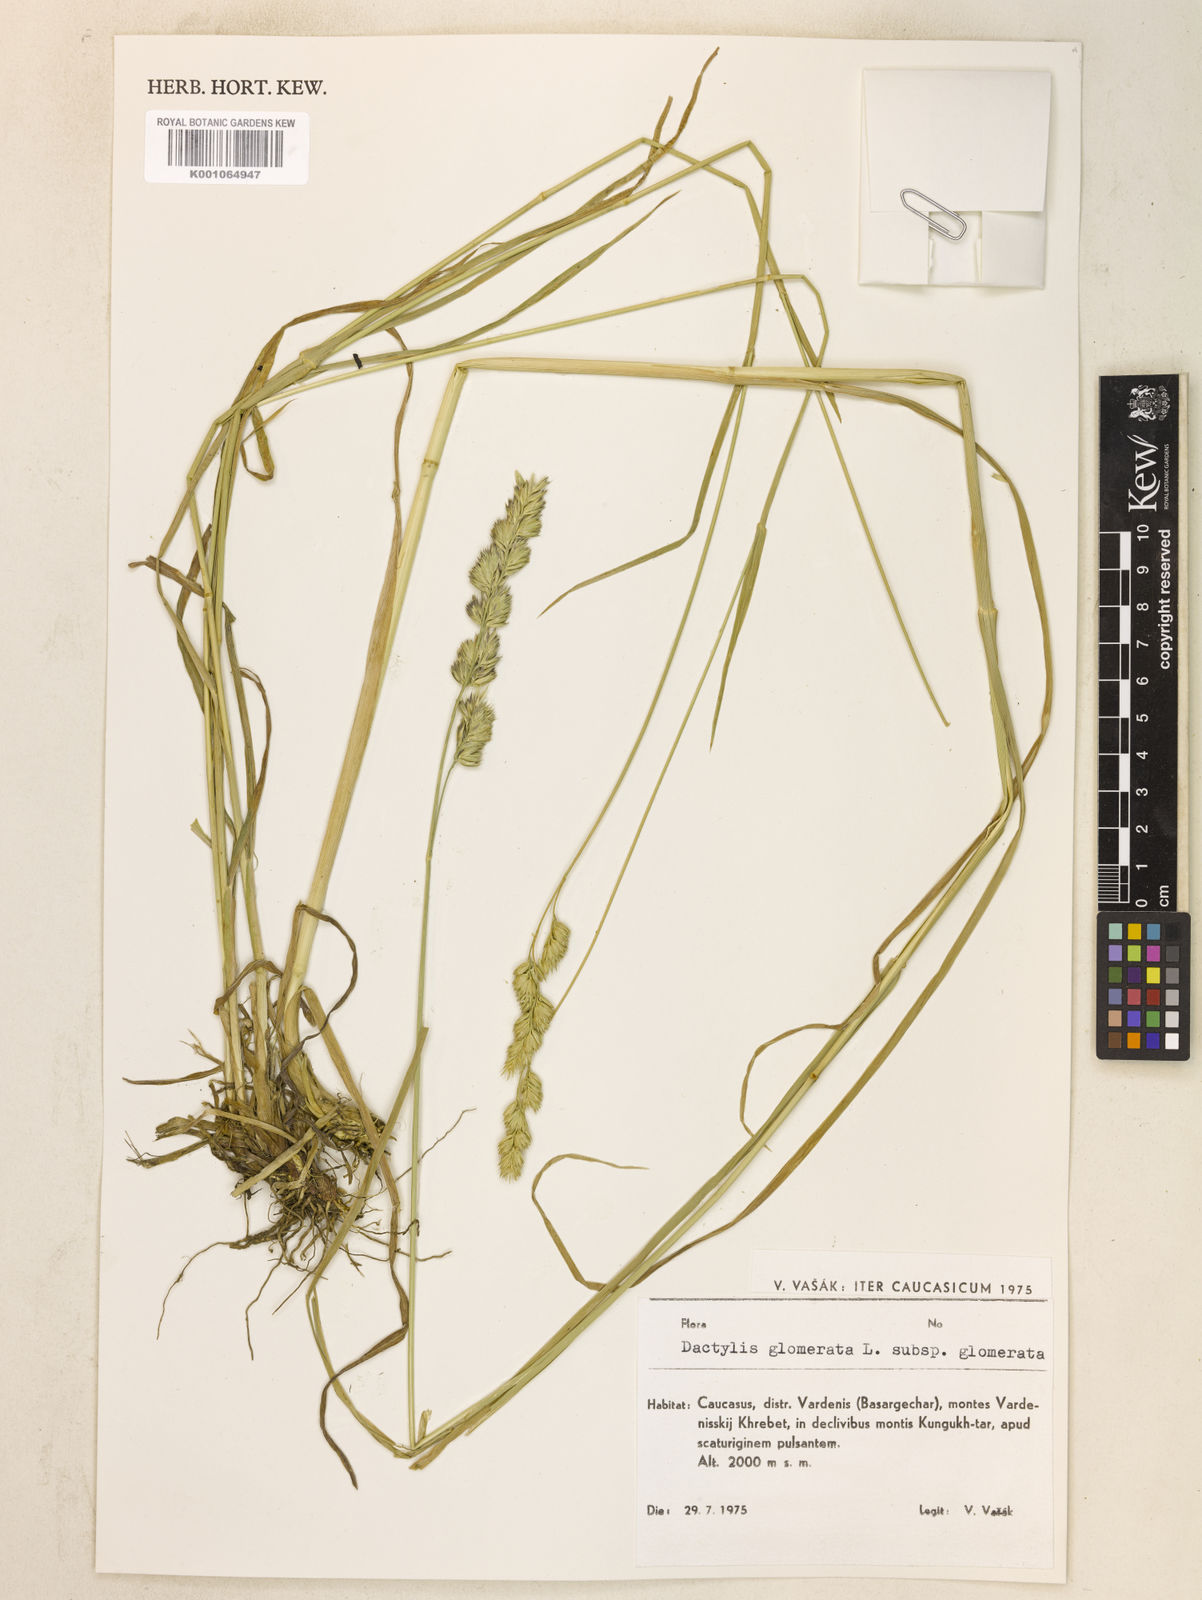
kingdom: Plantae
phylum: Tracheophyta
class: Liliopsida
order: Poales
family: Poaceae
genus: Dactylis
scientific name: Dactylis glomerata
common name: Orchardgrass
